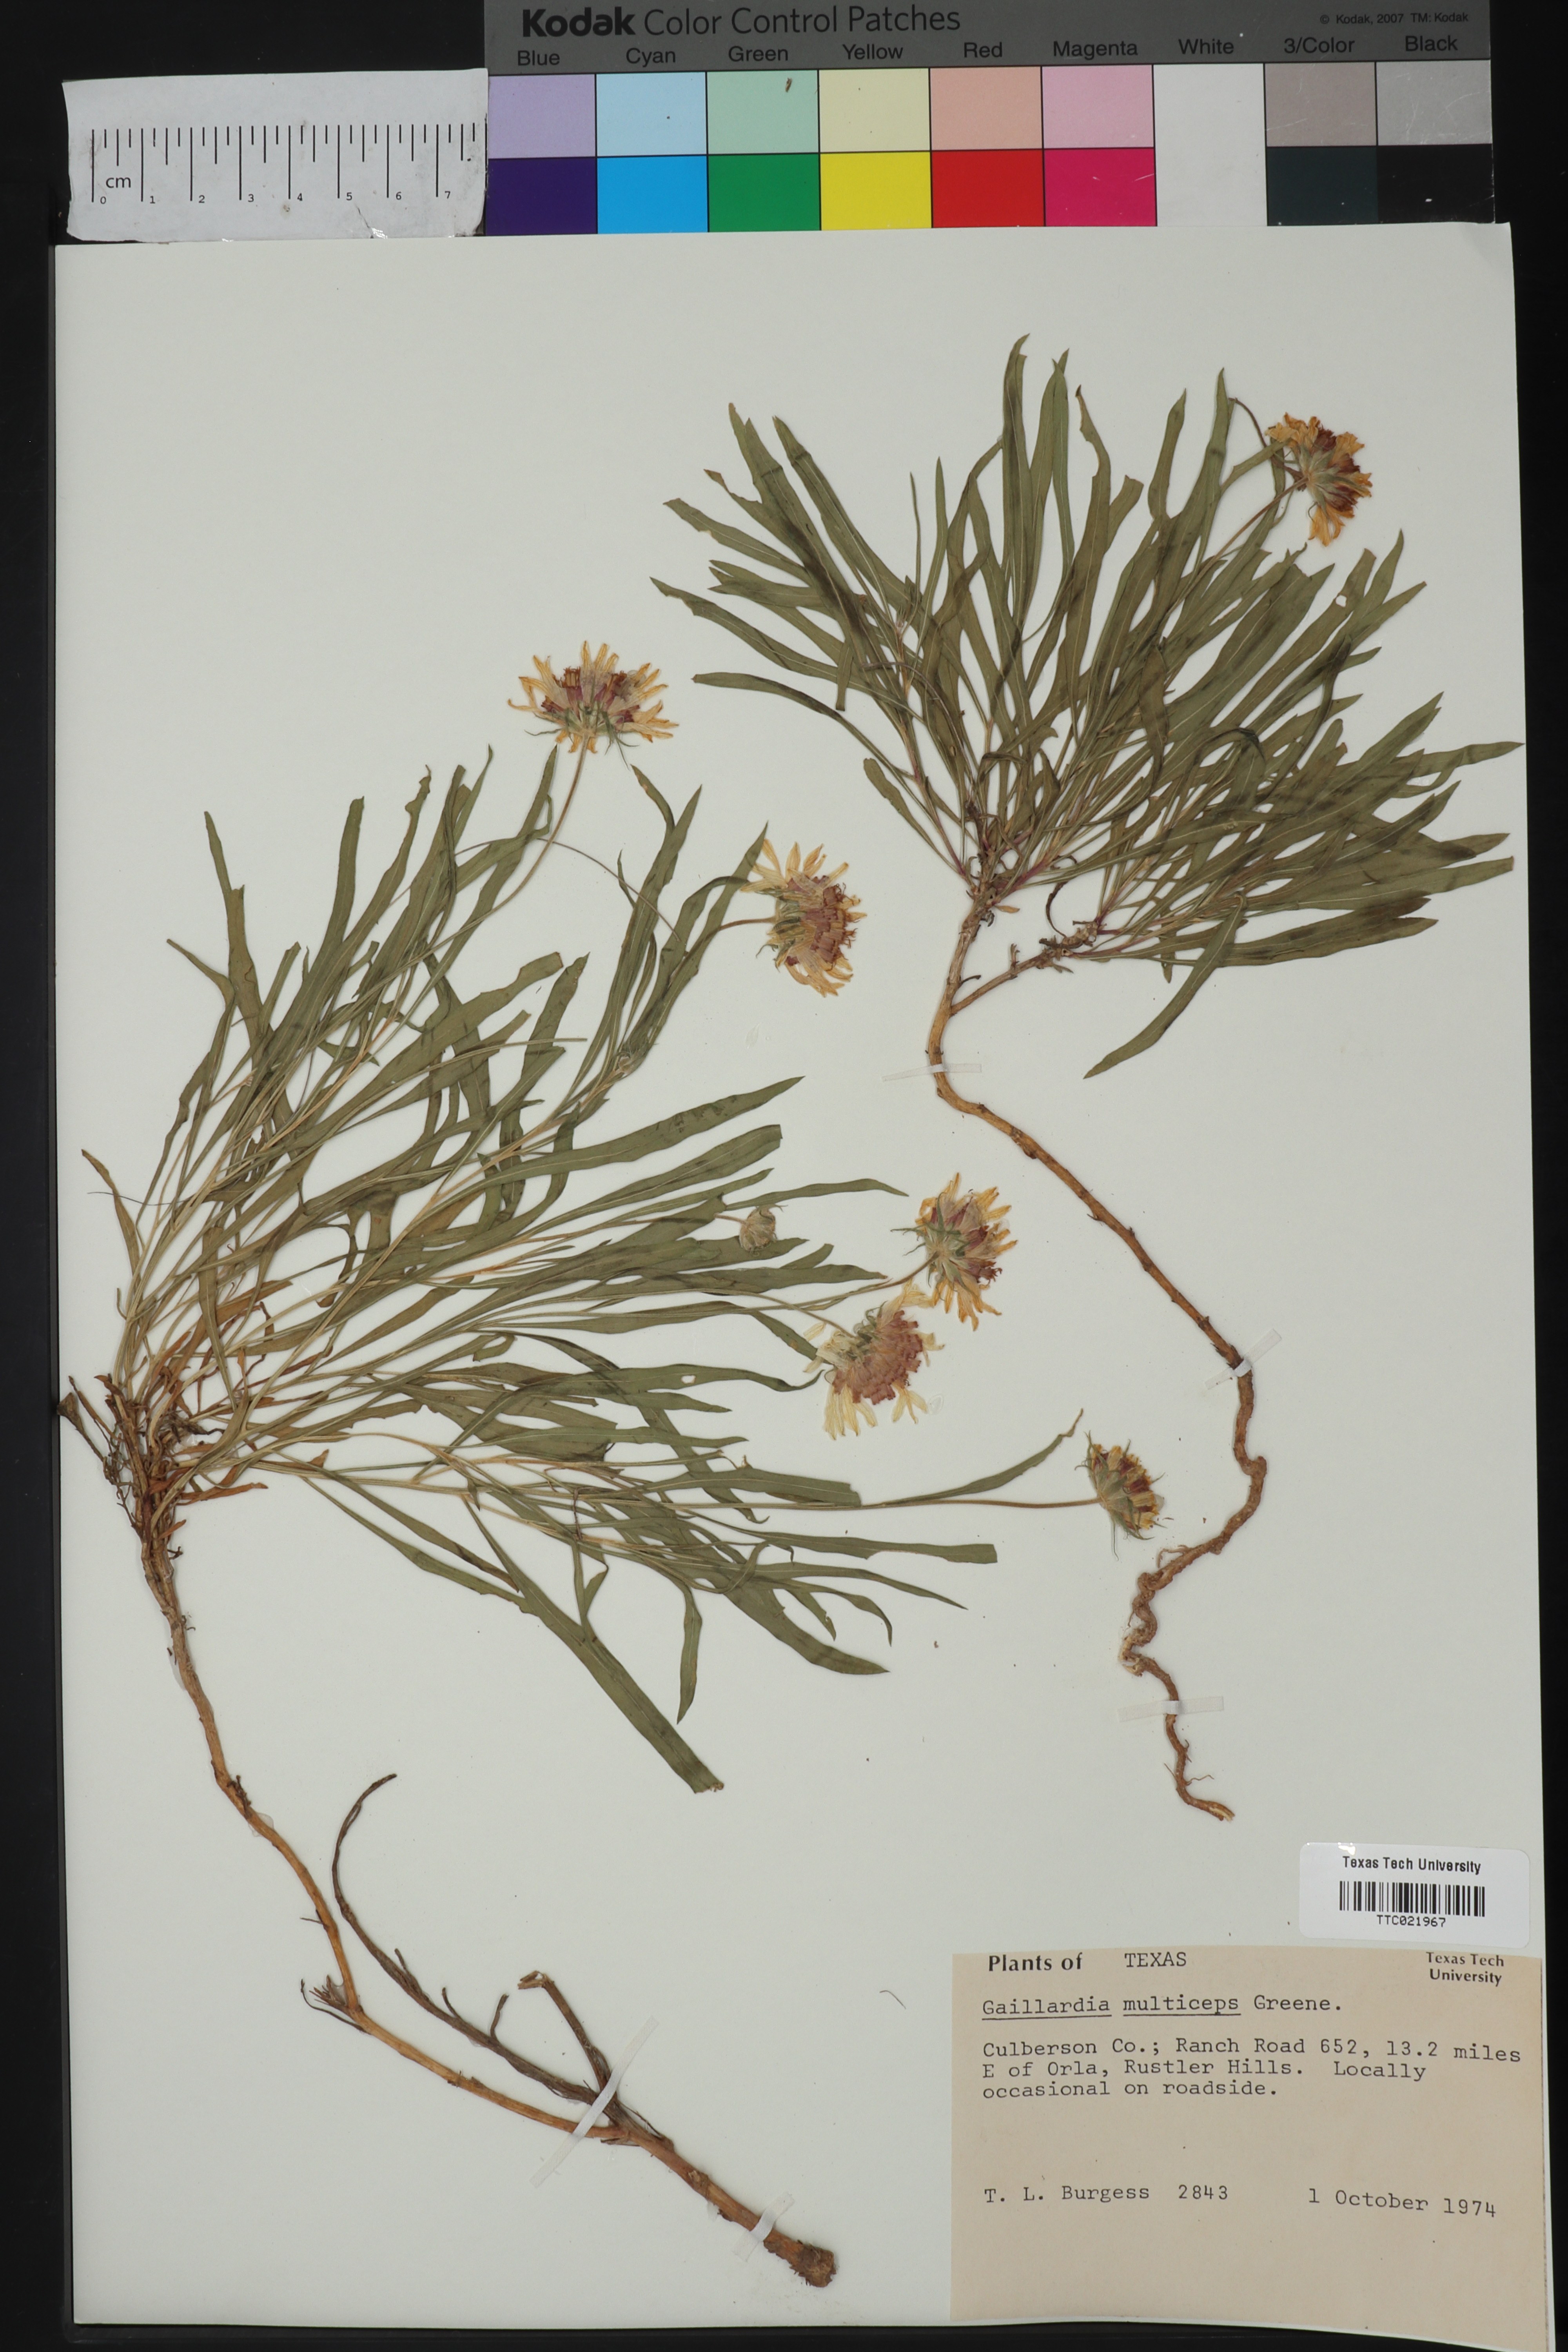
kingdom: Plantae
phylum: Tracheophyta
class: Magnoliopsida
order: Asterales
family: Asteraceae
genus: Gaillardia
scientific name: Gaillardia multiceps
